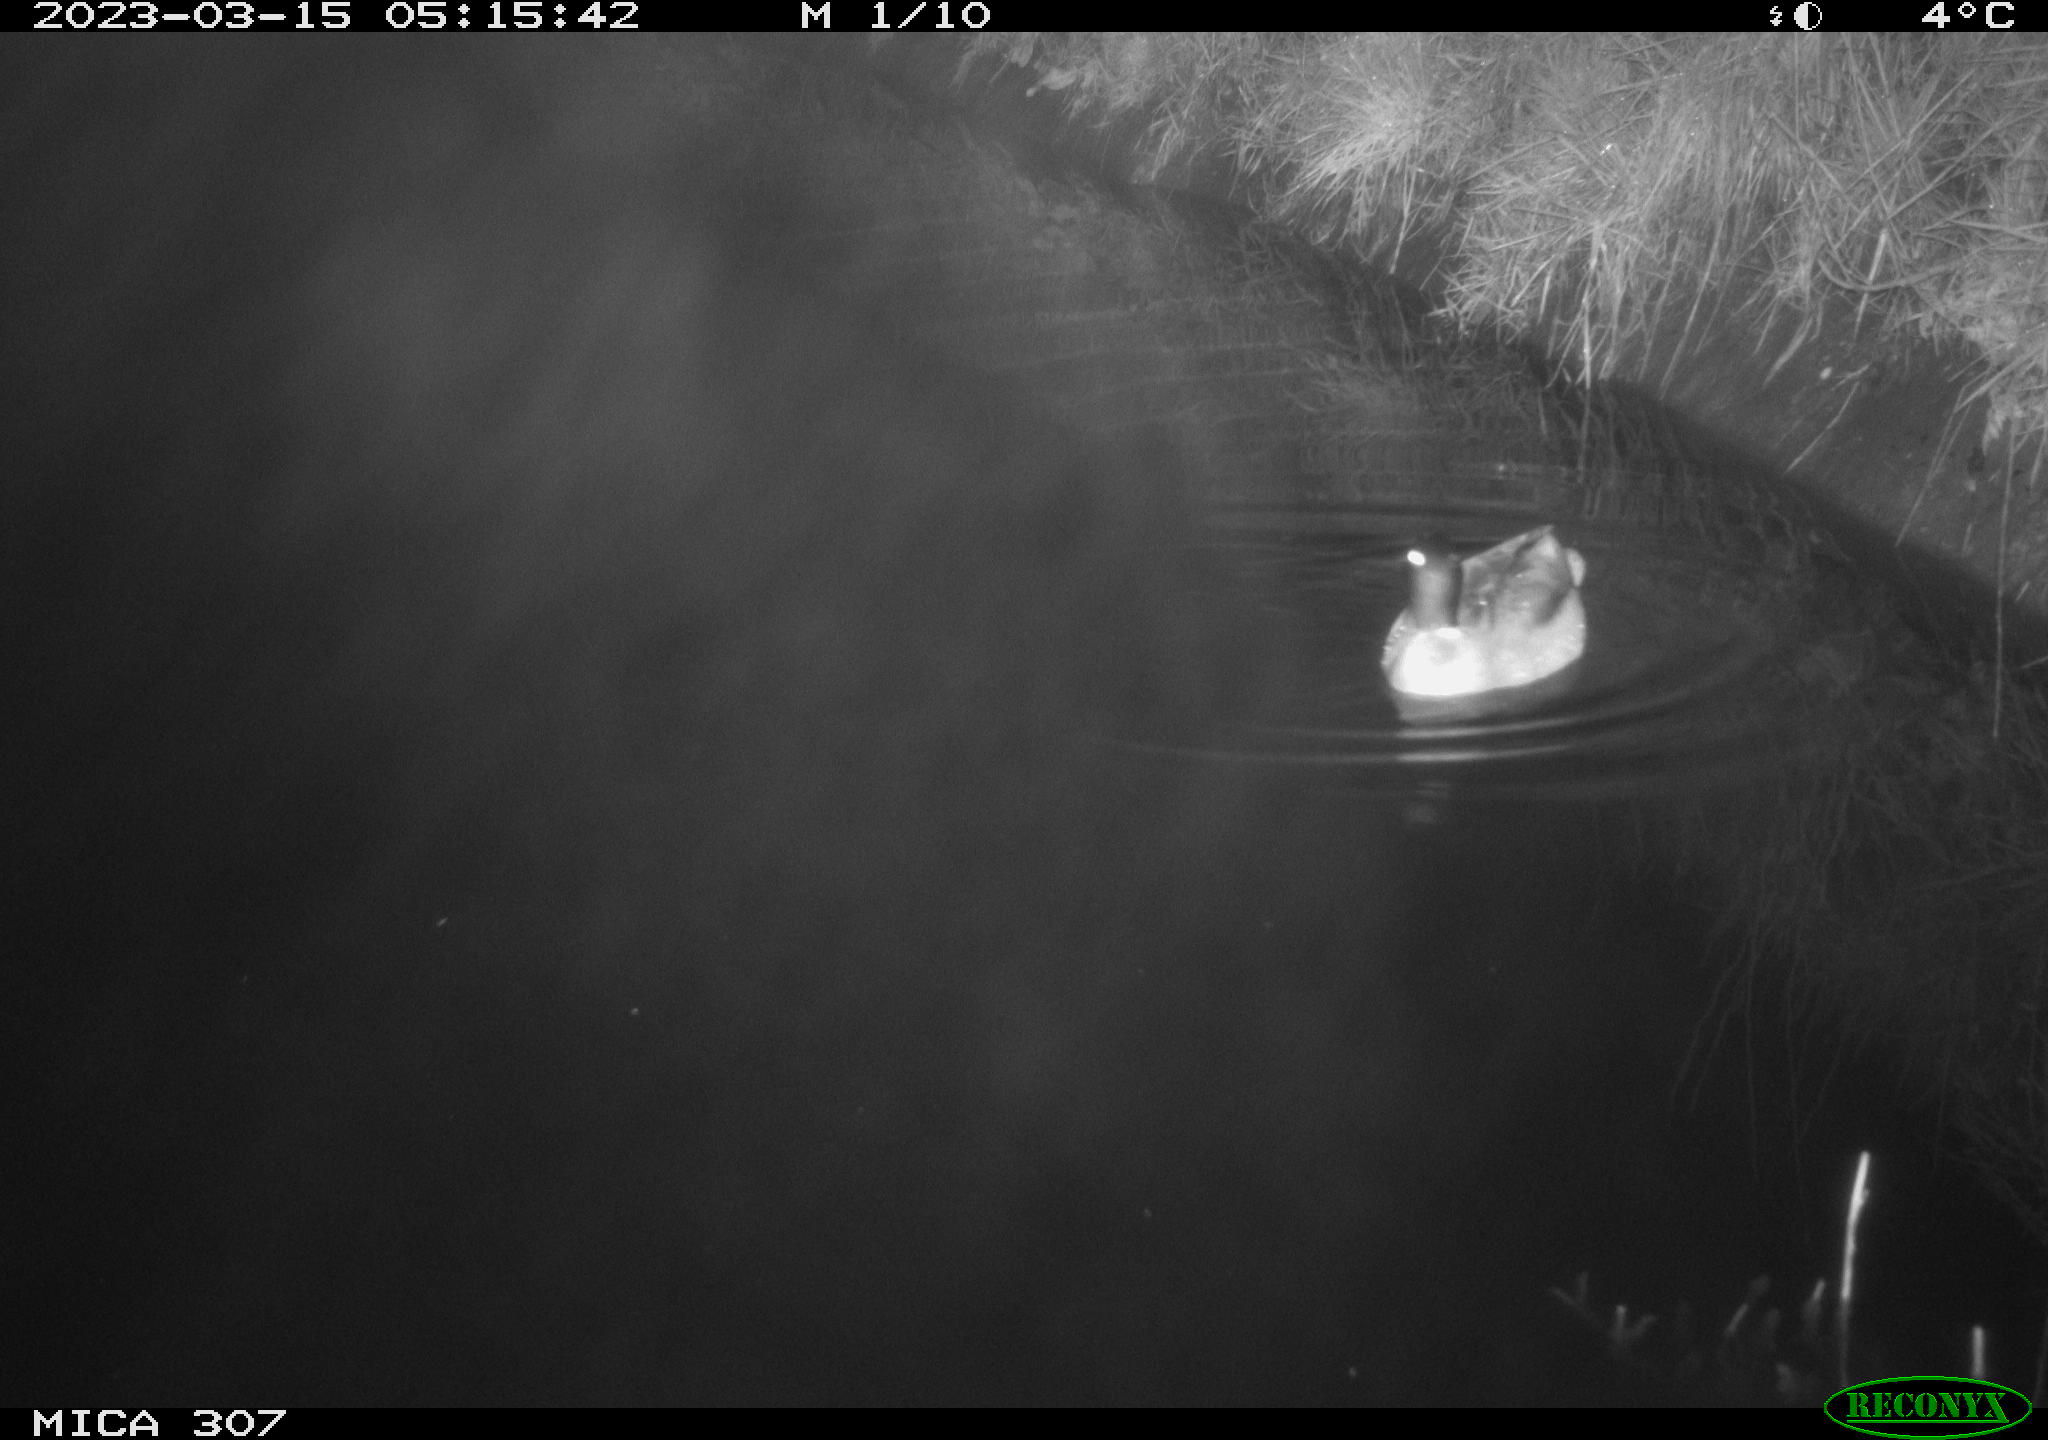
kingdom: Animalia
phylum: Chordata
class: Aves
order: Anseriformes
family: Anatidae
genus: Anas
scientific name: Anas
